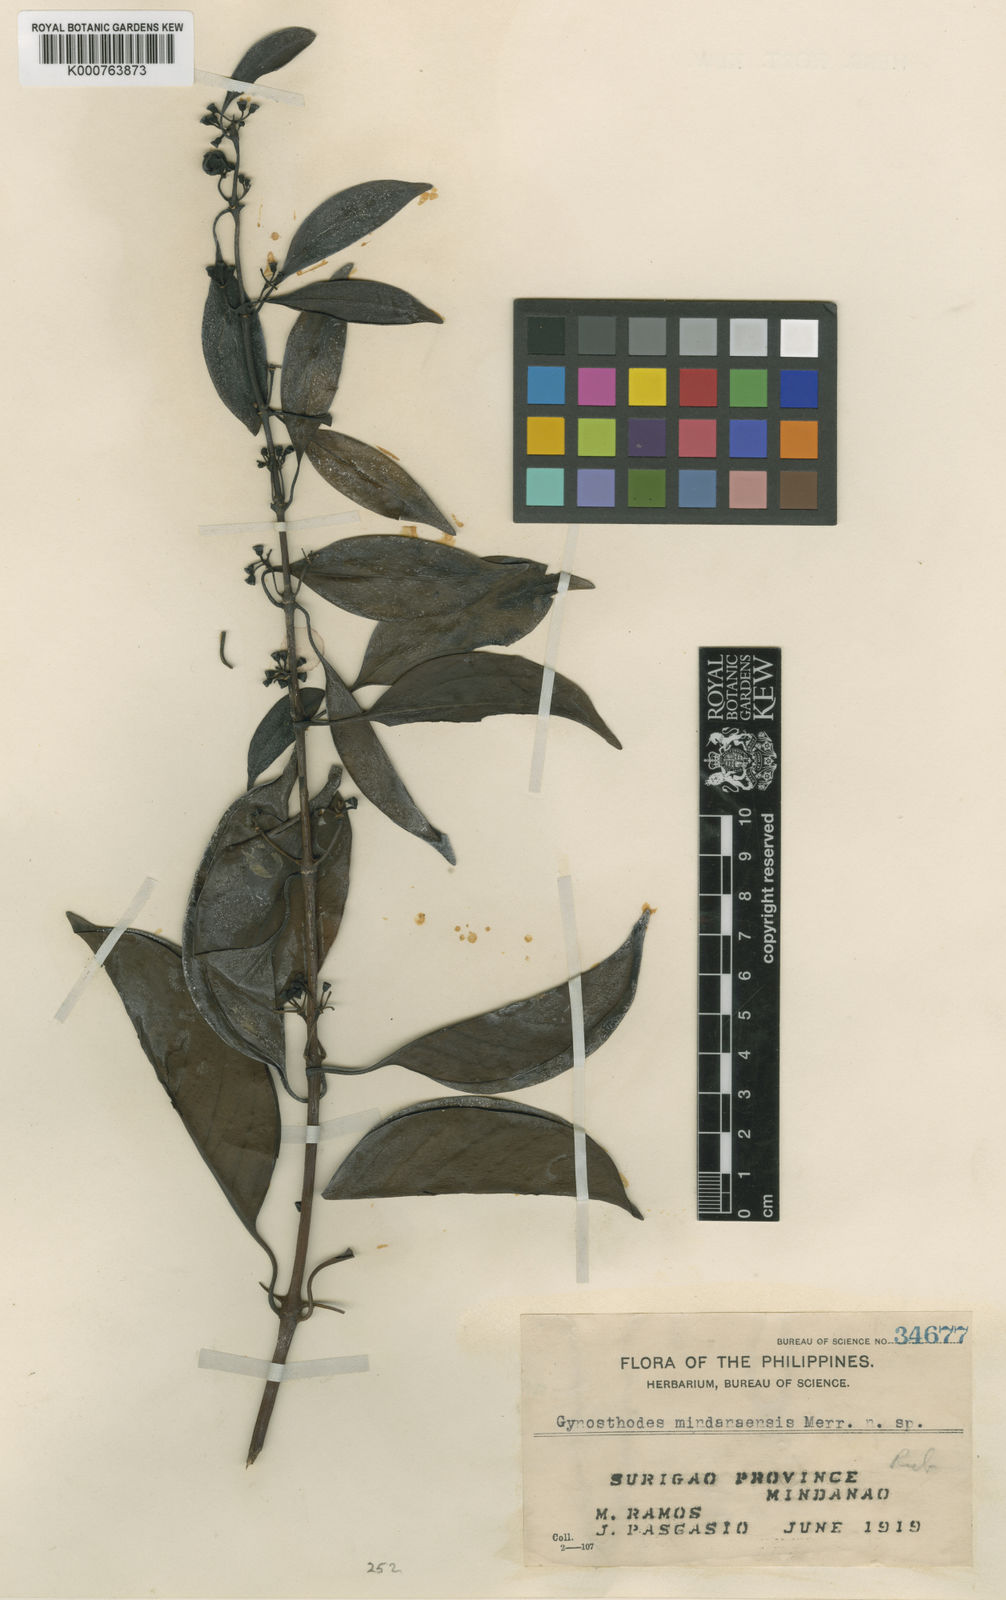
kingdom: Plantae
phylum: Tracheophyta
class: Magnoliopsida
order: Gentianales
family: Rubiaceae
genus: Gynochthodes
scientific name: Gynochthodes mindanaensis
